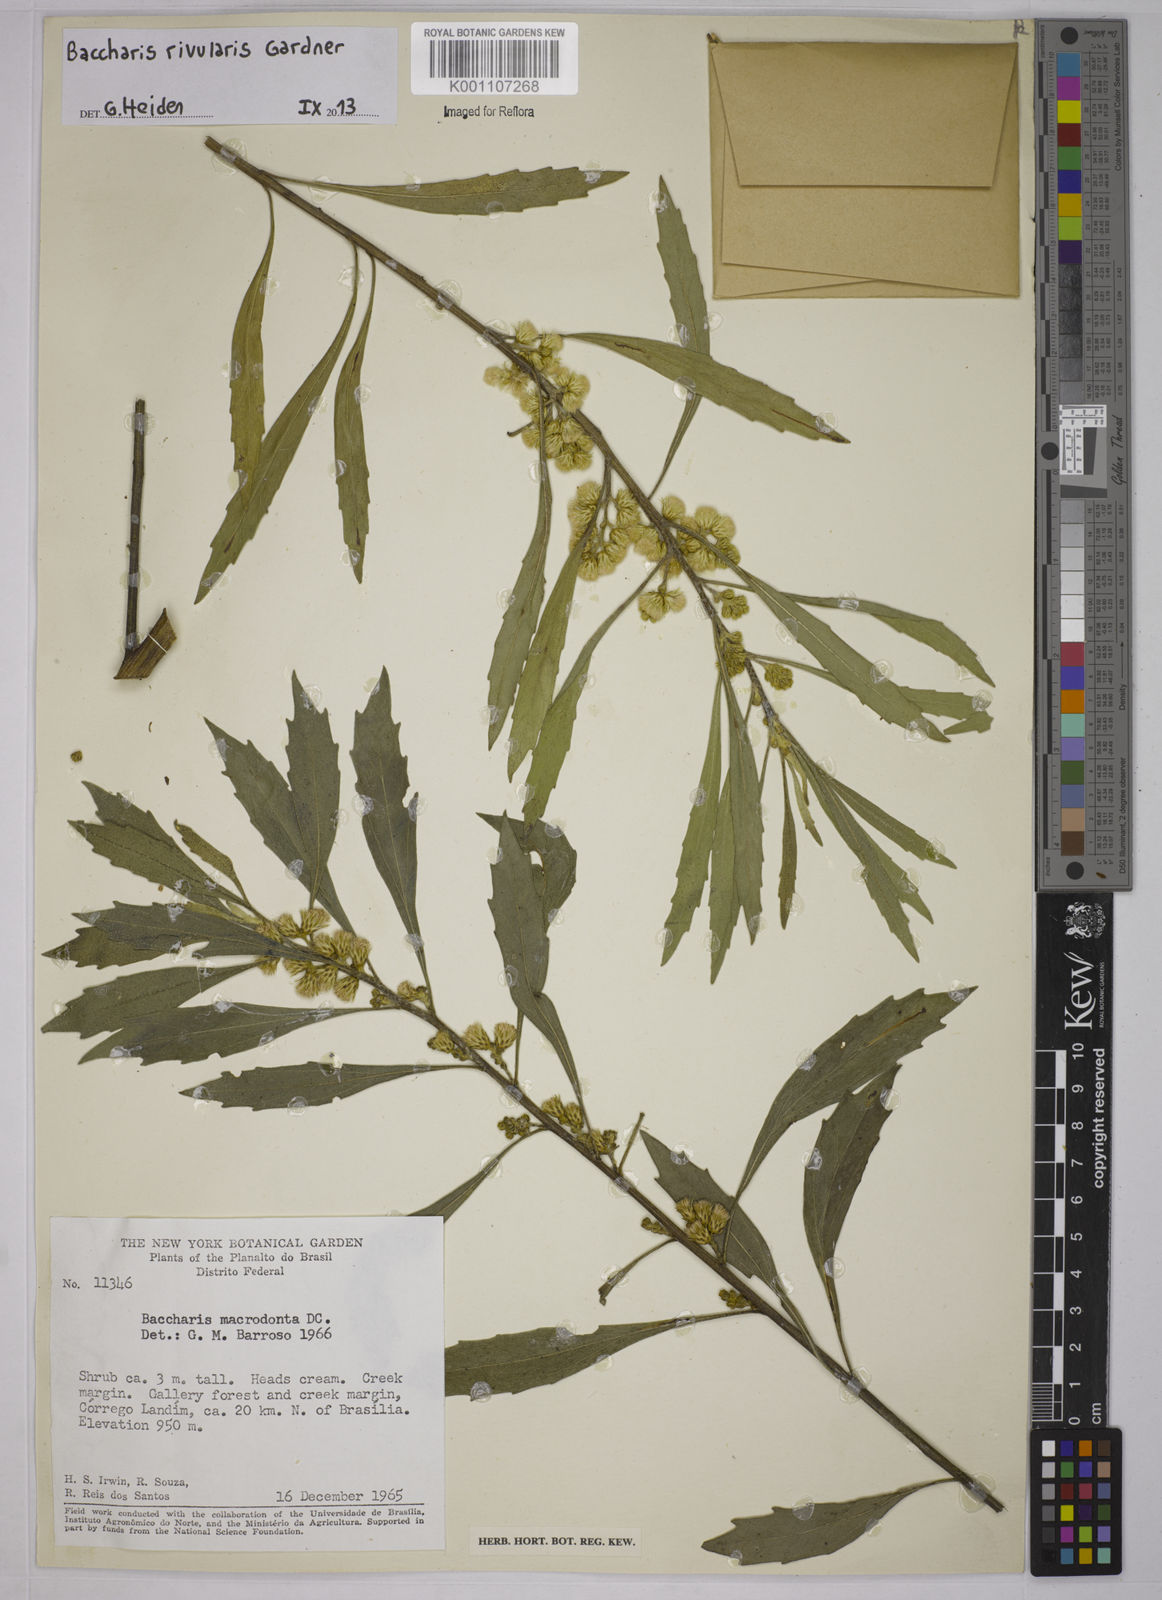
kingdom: Plantae
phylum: Tracheophyta
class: Magnoliopsida
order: Asterales
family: Asteraceae
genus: Baccharis
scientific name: Baccharis rivularis
